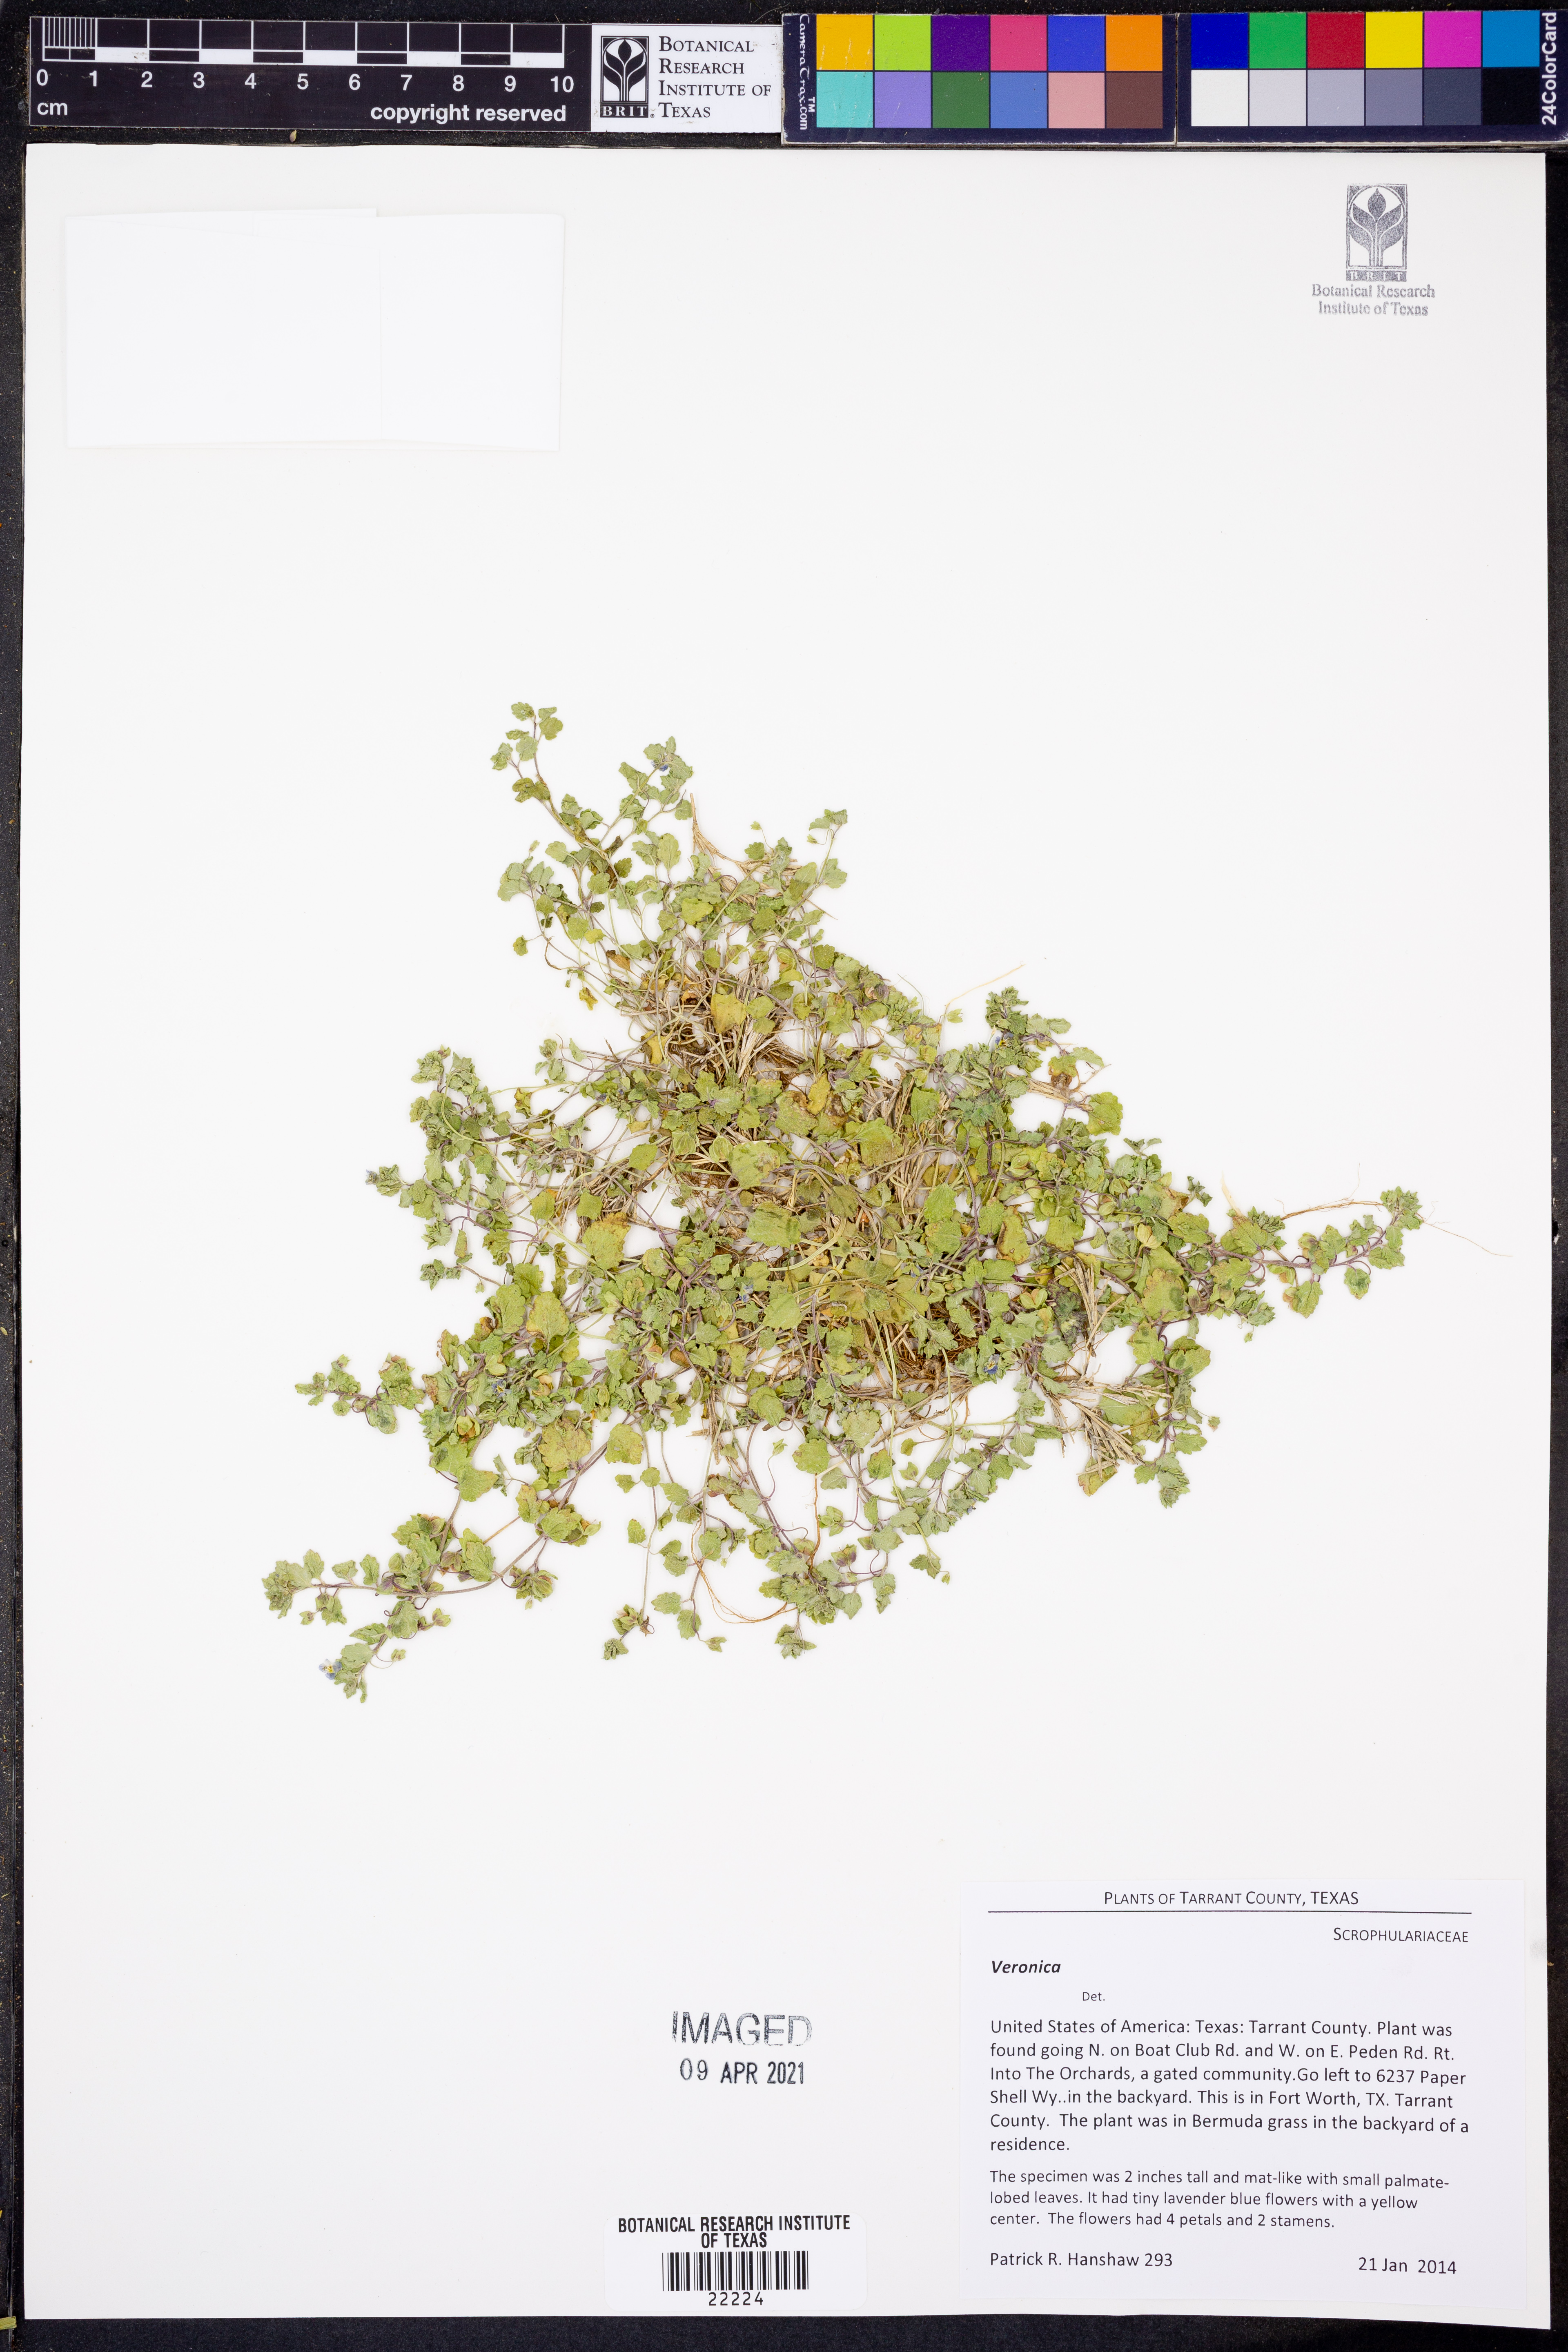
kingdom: Plantae
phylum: Tracheophyta
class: Magnoliopsida
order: Lamiales
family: Plantaginaceae
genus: Veronica
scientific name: Veronica
